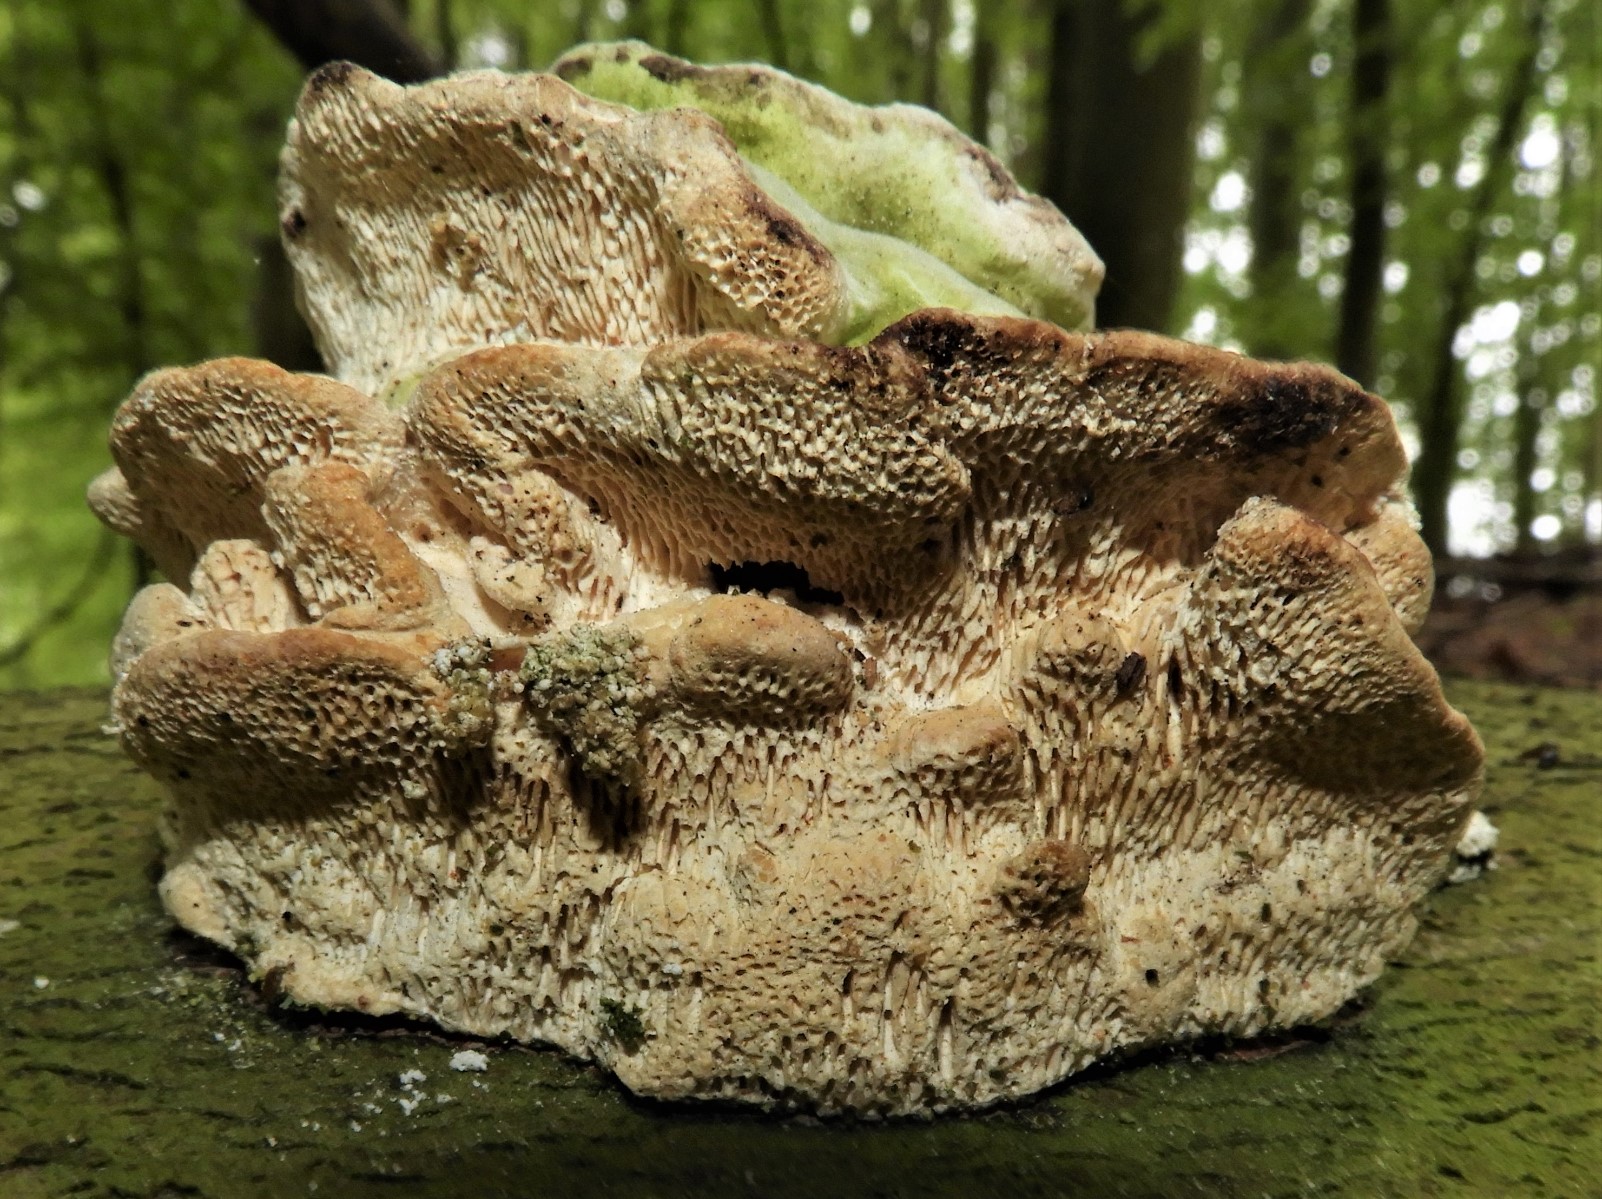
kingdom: Fungi
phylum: Basidiomycota
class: Agaricomycetes
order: Polyporales
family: Polyporaceae
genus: Trametes
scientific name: Trametes gibbosa
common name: puklet læderporesvamp
